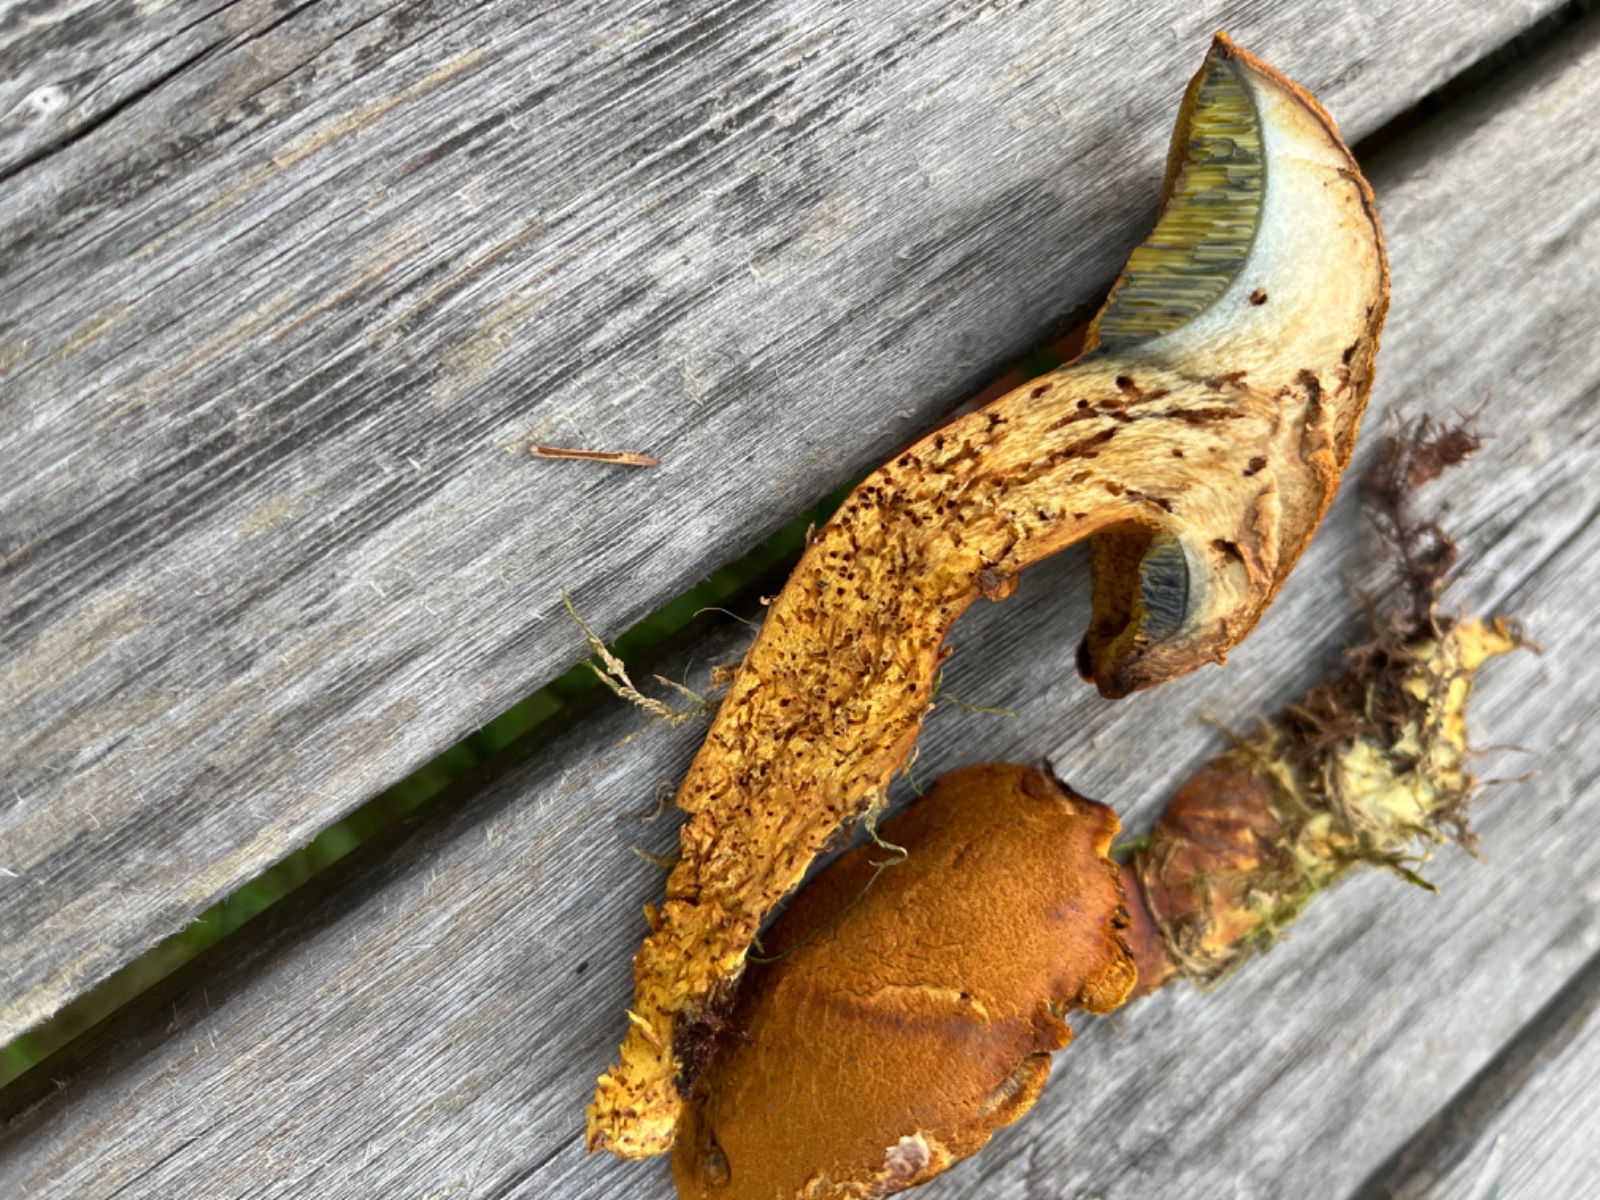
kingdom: Fungi
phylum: Basidiomycota
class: Agaricomycetes
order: Boletales
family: Boletaceae
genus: Buchwaldoboletus
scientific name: Buchwaldoboletus lignicola
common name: stødrørhat
